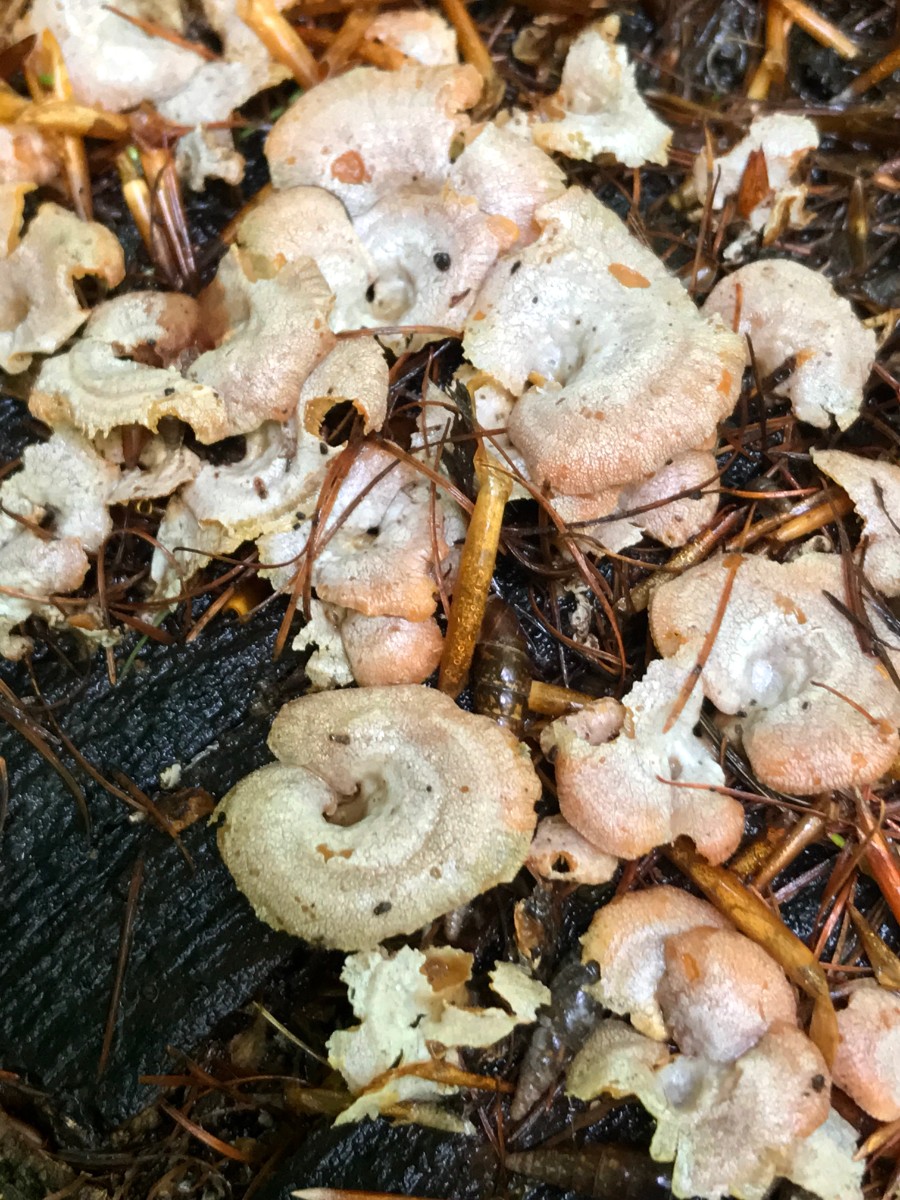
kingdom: Fungi
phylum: Basidiomycota
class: Agaricomycetes
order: Agaricales
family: Mycenaceae
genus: Panellus
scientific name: Panellus stipticus
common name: kliddet epaulethat
